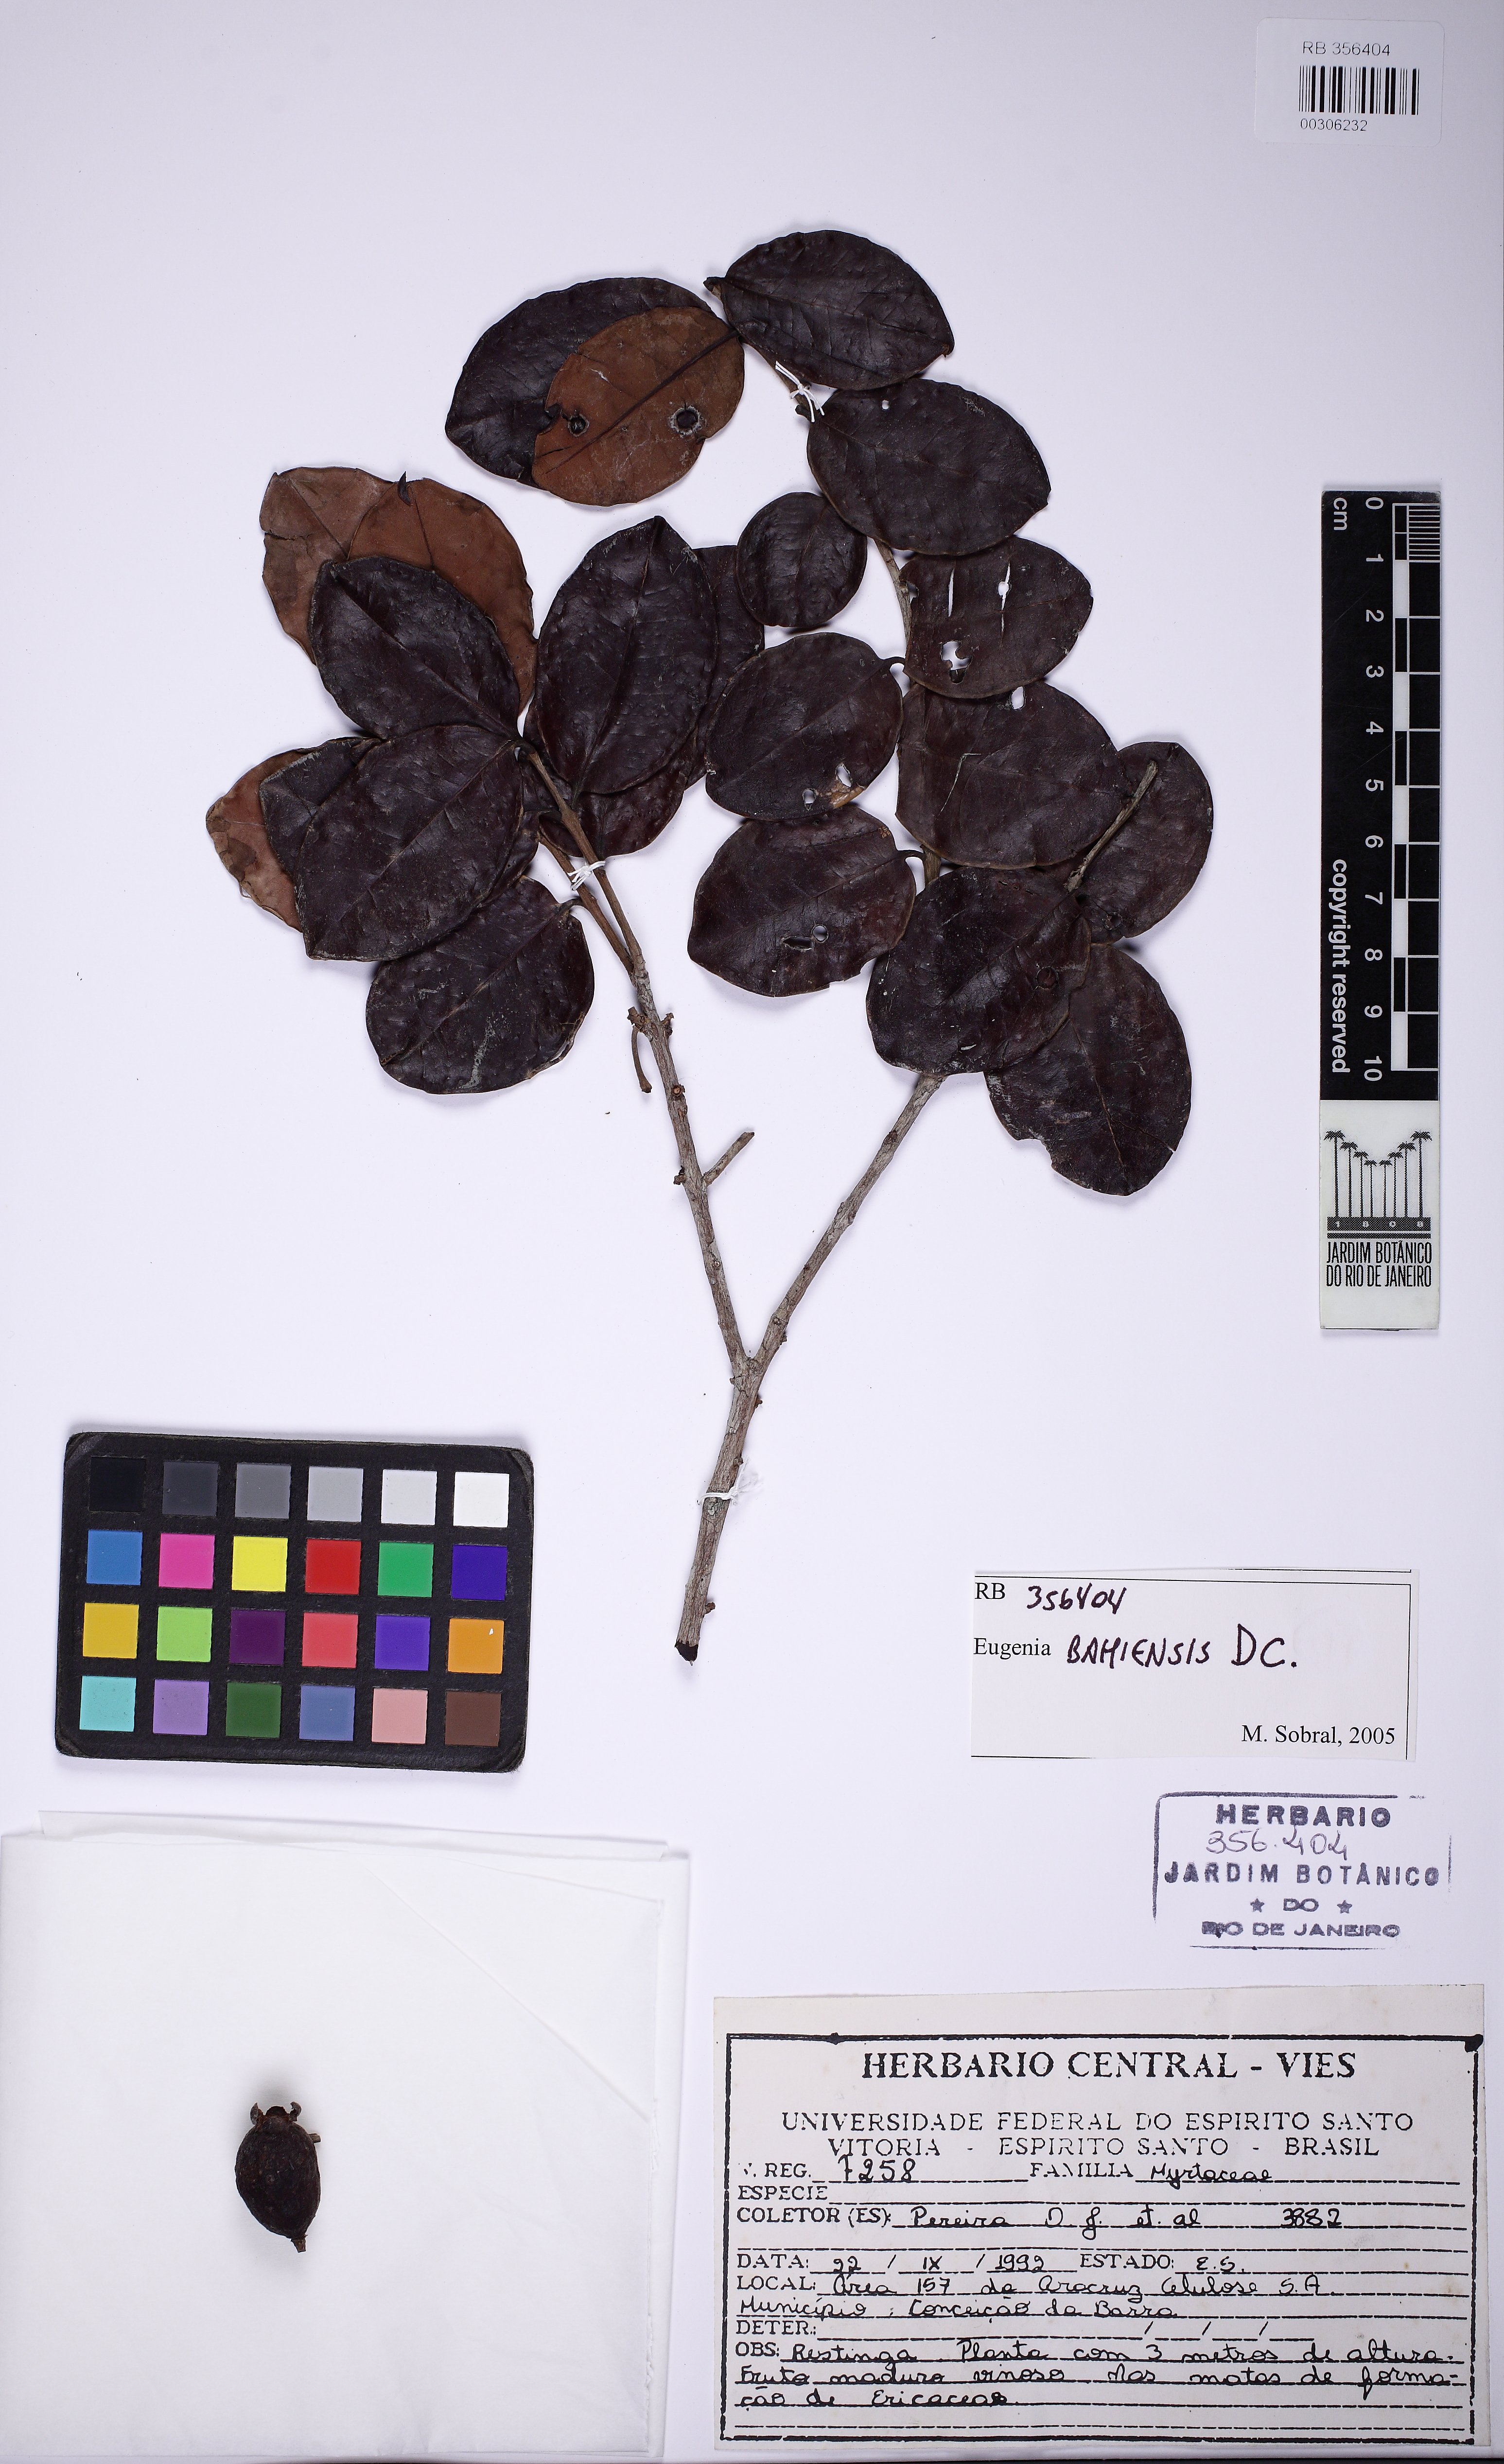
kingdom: Plantae
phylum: Tracheophyta
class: Magnoliopsida
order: Myrtales
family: Myrtaceae
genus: Eugenia
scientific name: Eugenia bahiensis
